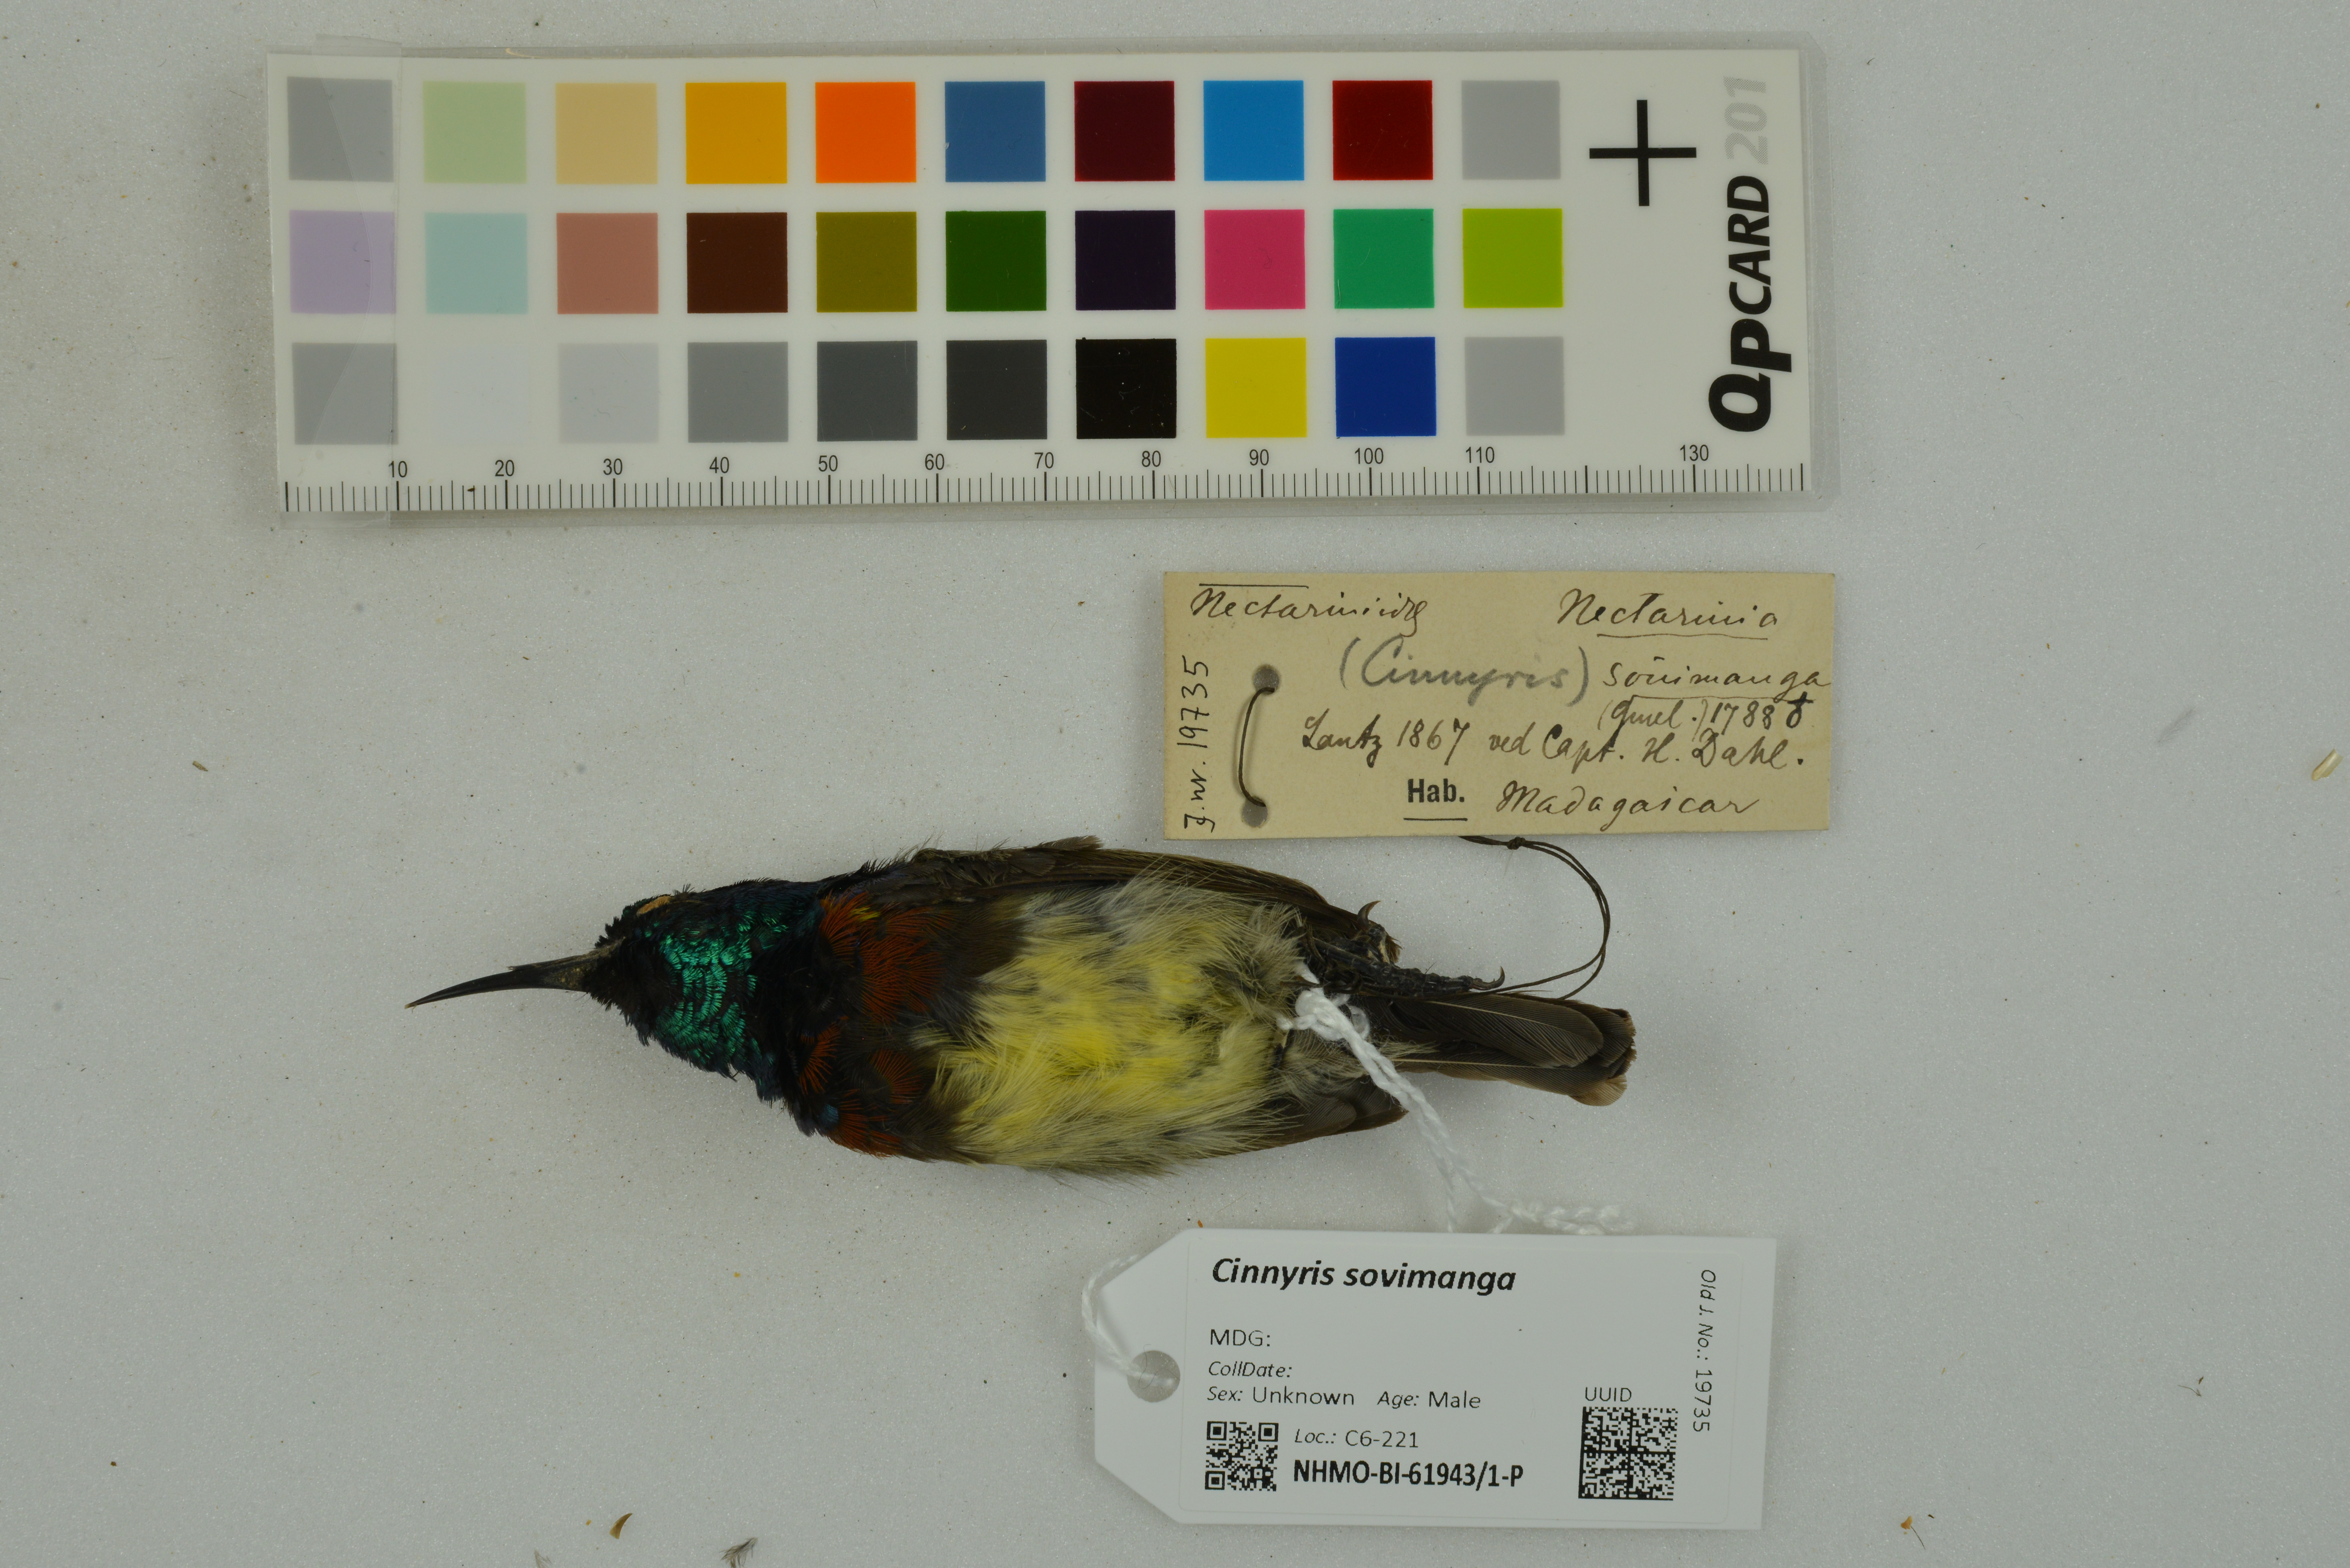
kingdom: Animalia
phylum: Chordata
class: Aves
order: Passeriformes
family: Nectariniidae
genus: Cinnyris
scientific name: Cinnyris sovimanga
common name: Souimanga sunbird
